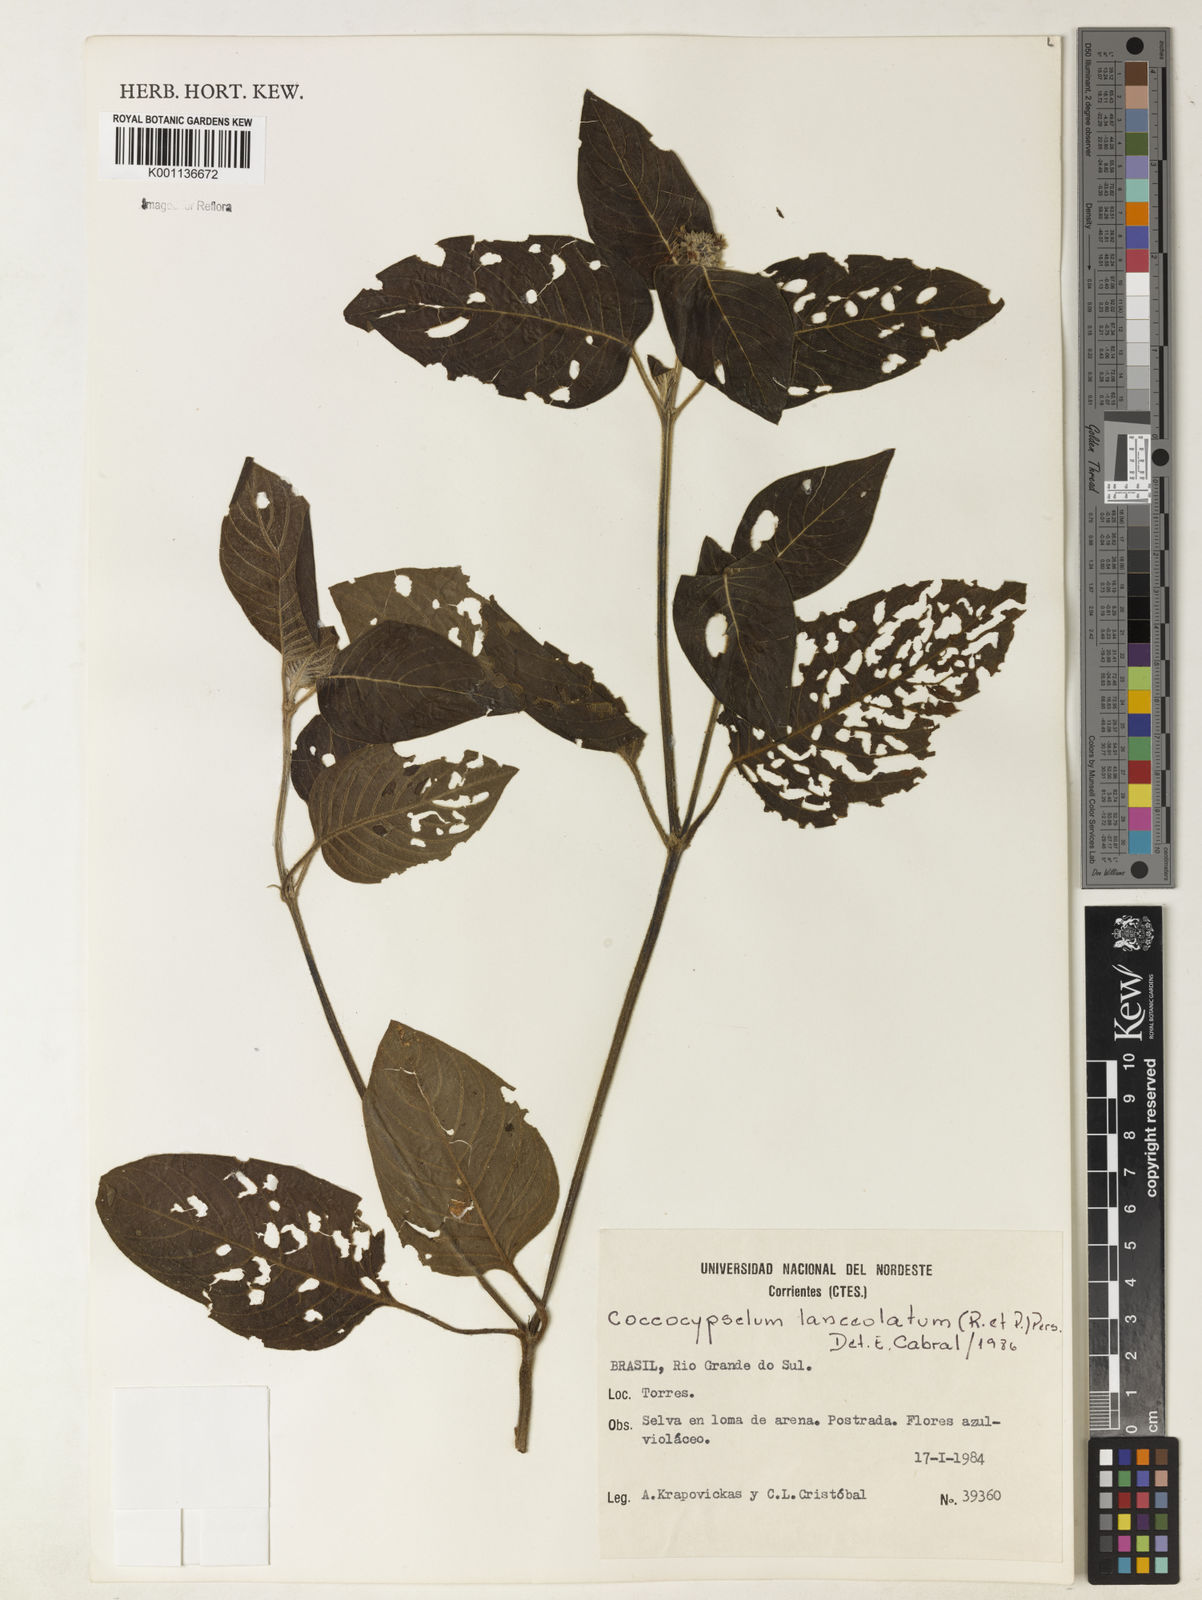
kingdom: Plantae
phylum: Tracheophyta
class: Magnoliopsida
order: Gentianales
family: Rubiaceae
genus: Coccocypselum
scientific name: Coccocypselum lanceolatum
